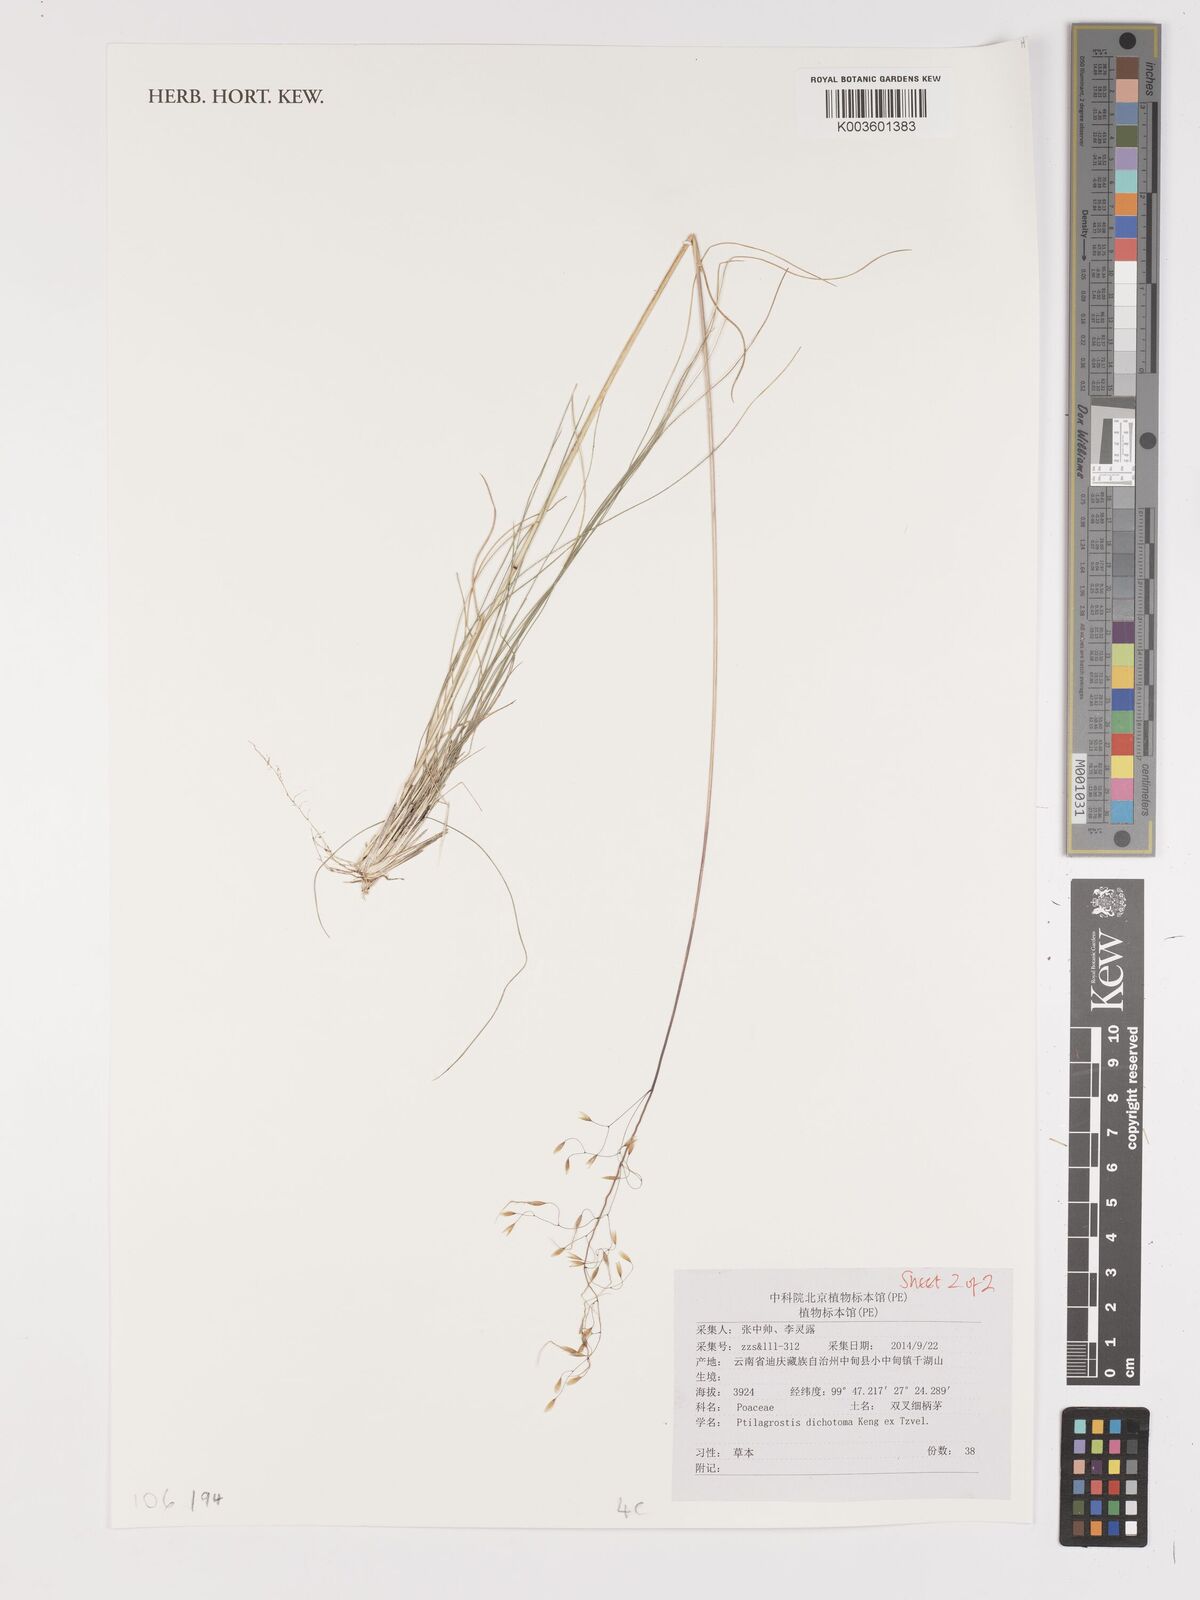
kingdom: Plantae
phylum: Tracheophyta
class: Liliopsida
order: Poales
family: Poaceae
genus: Stipa
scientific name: Stipa
